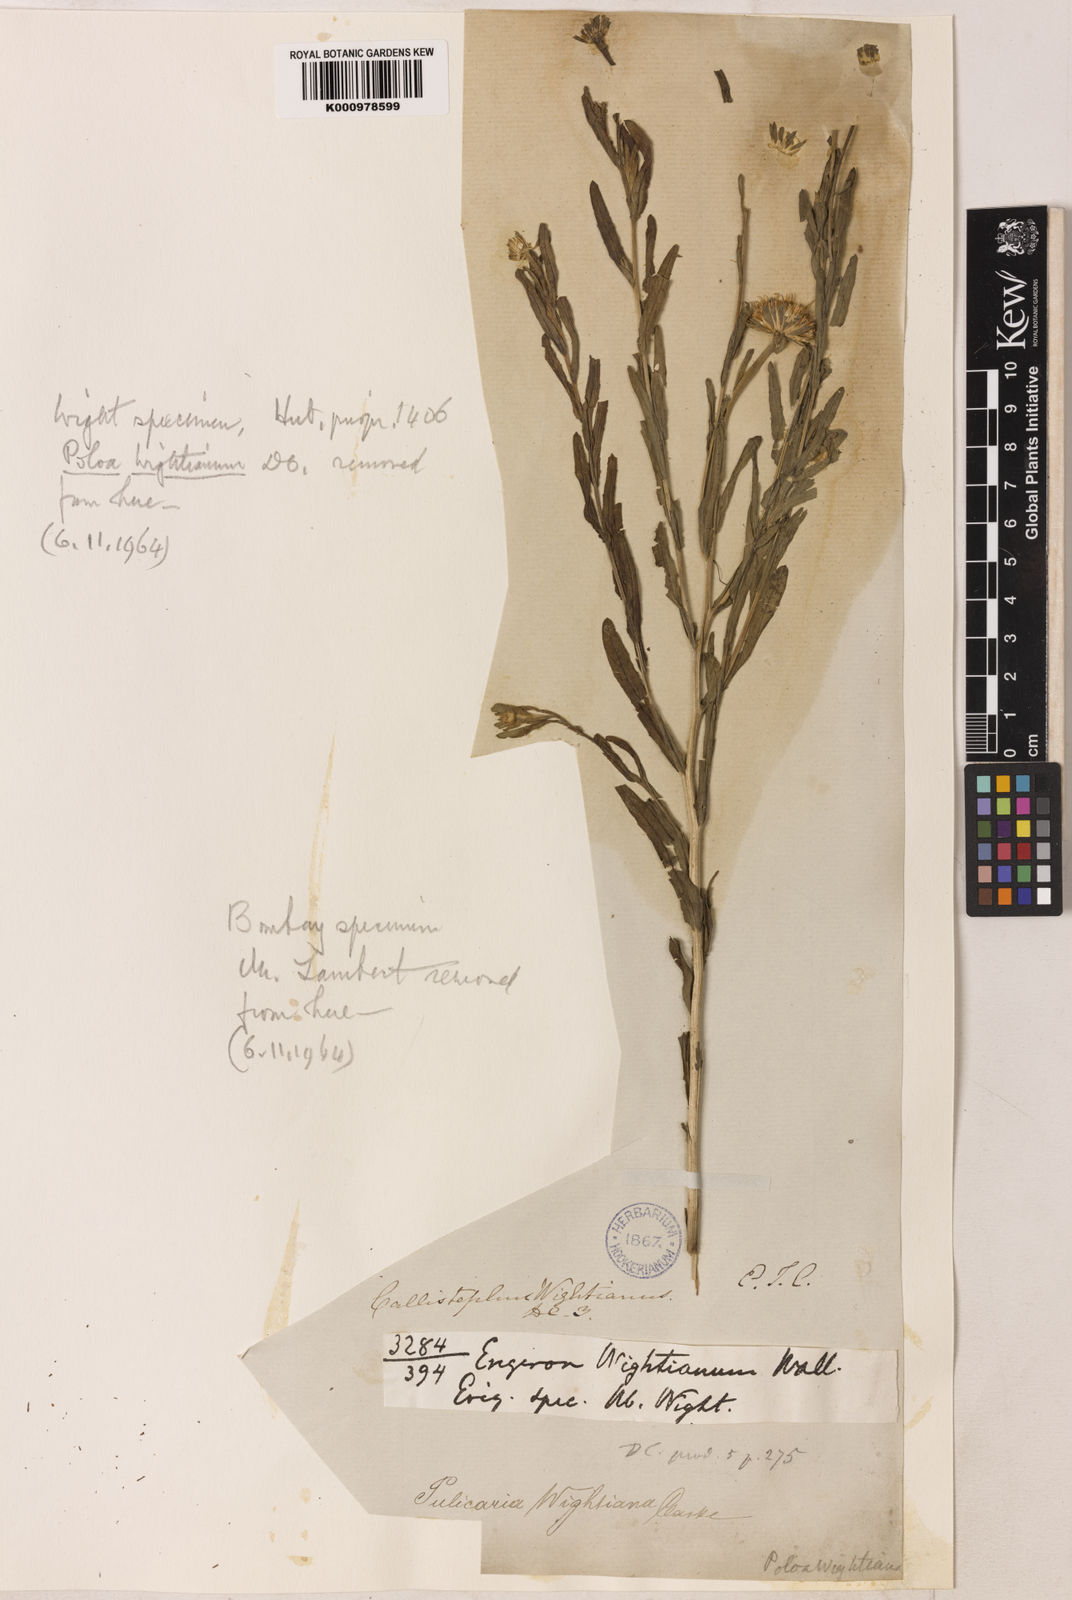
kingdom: Plantae
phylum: Tracheophyta
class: Magnoliopsida
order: Asterales
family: Asteraceae
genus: Pulicaria
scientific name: Pulicaria wightiana
